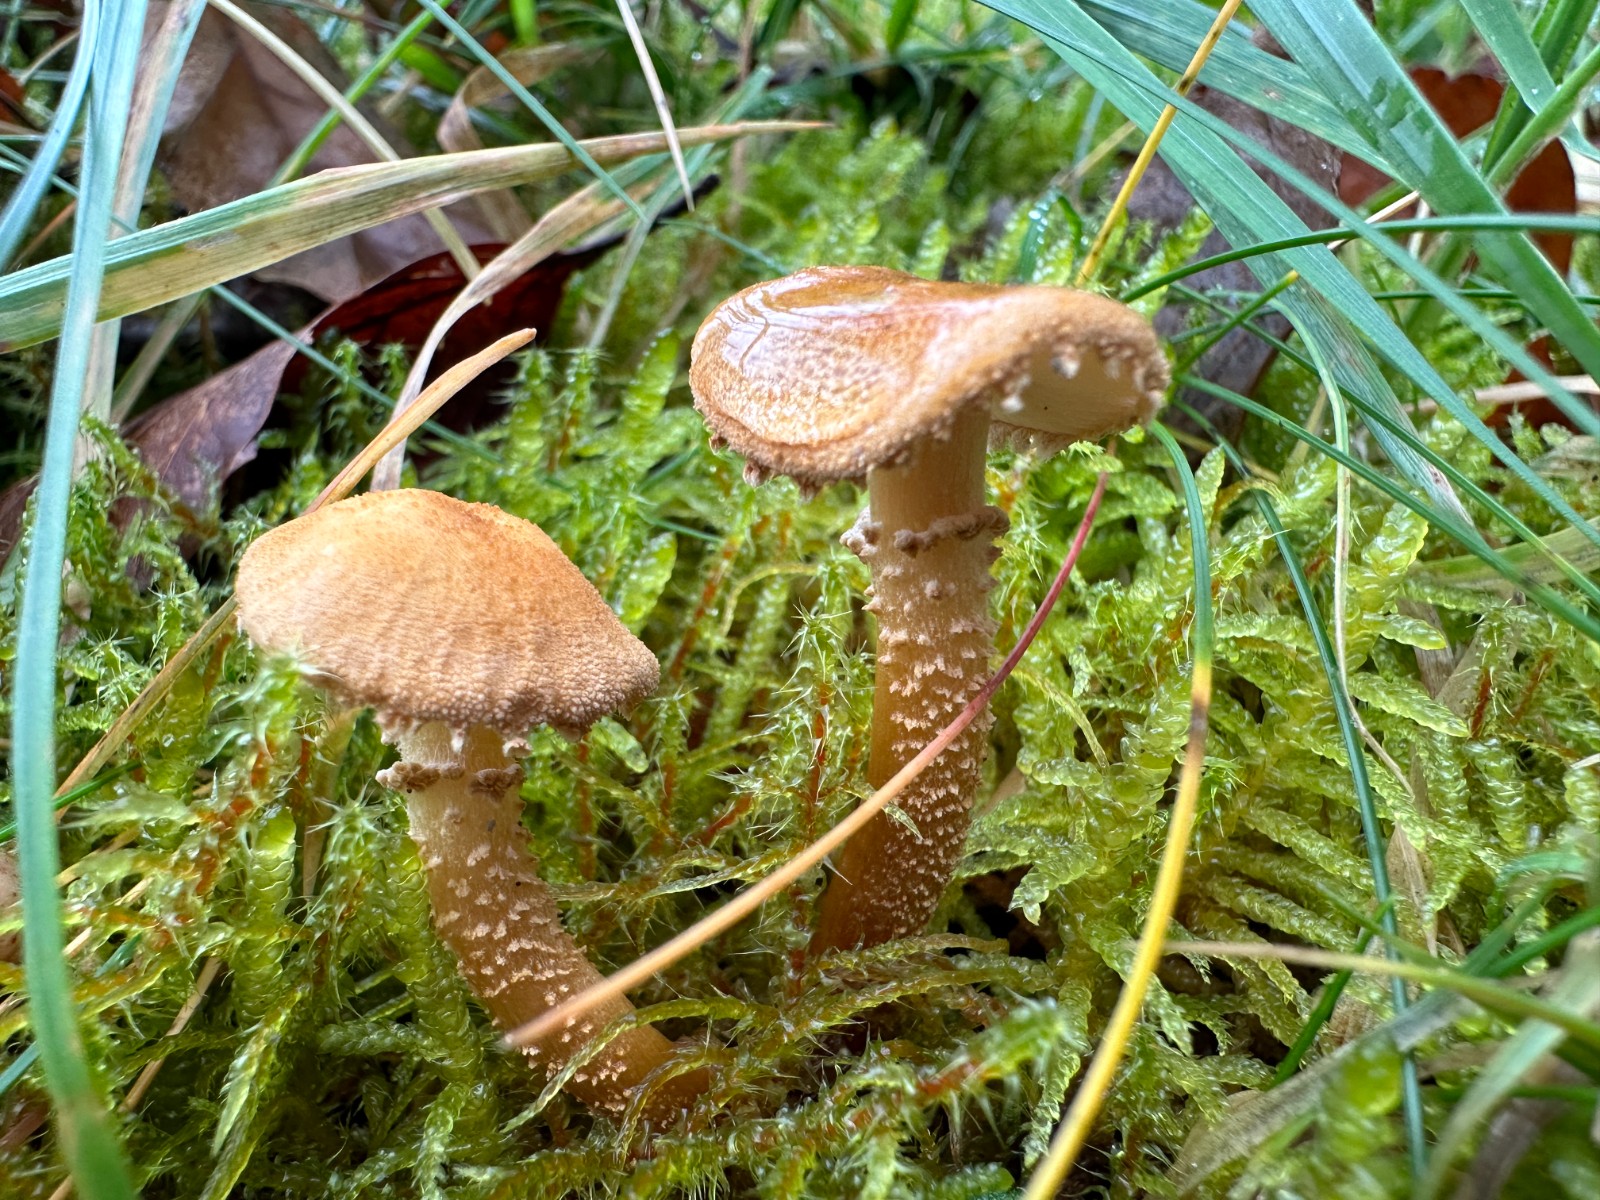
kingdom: Fungi
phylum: Basidiomycota
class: Agaricomycetes
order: Agaricales
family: Tricholomataceae
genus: Cystoderma
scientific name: Cystoderma amianthinum
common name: okkergul grynhat
